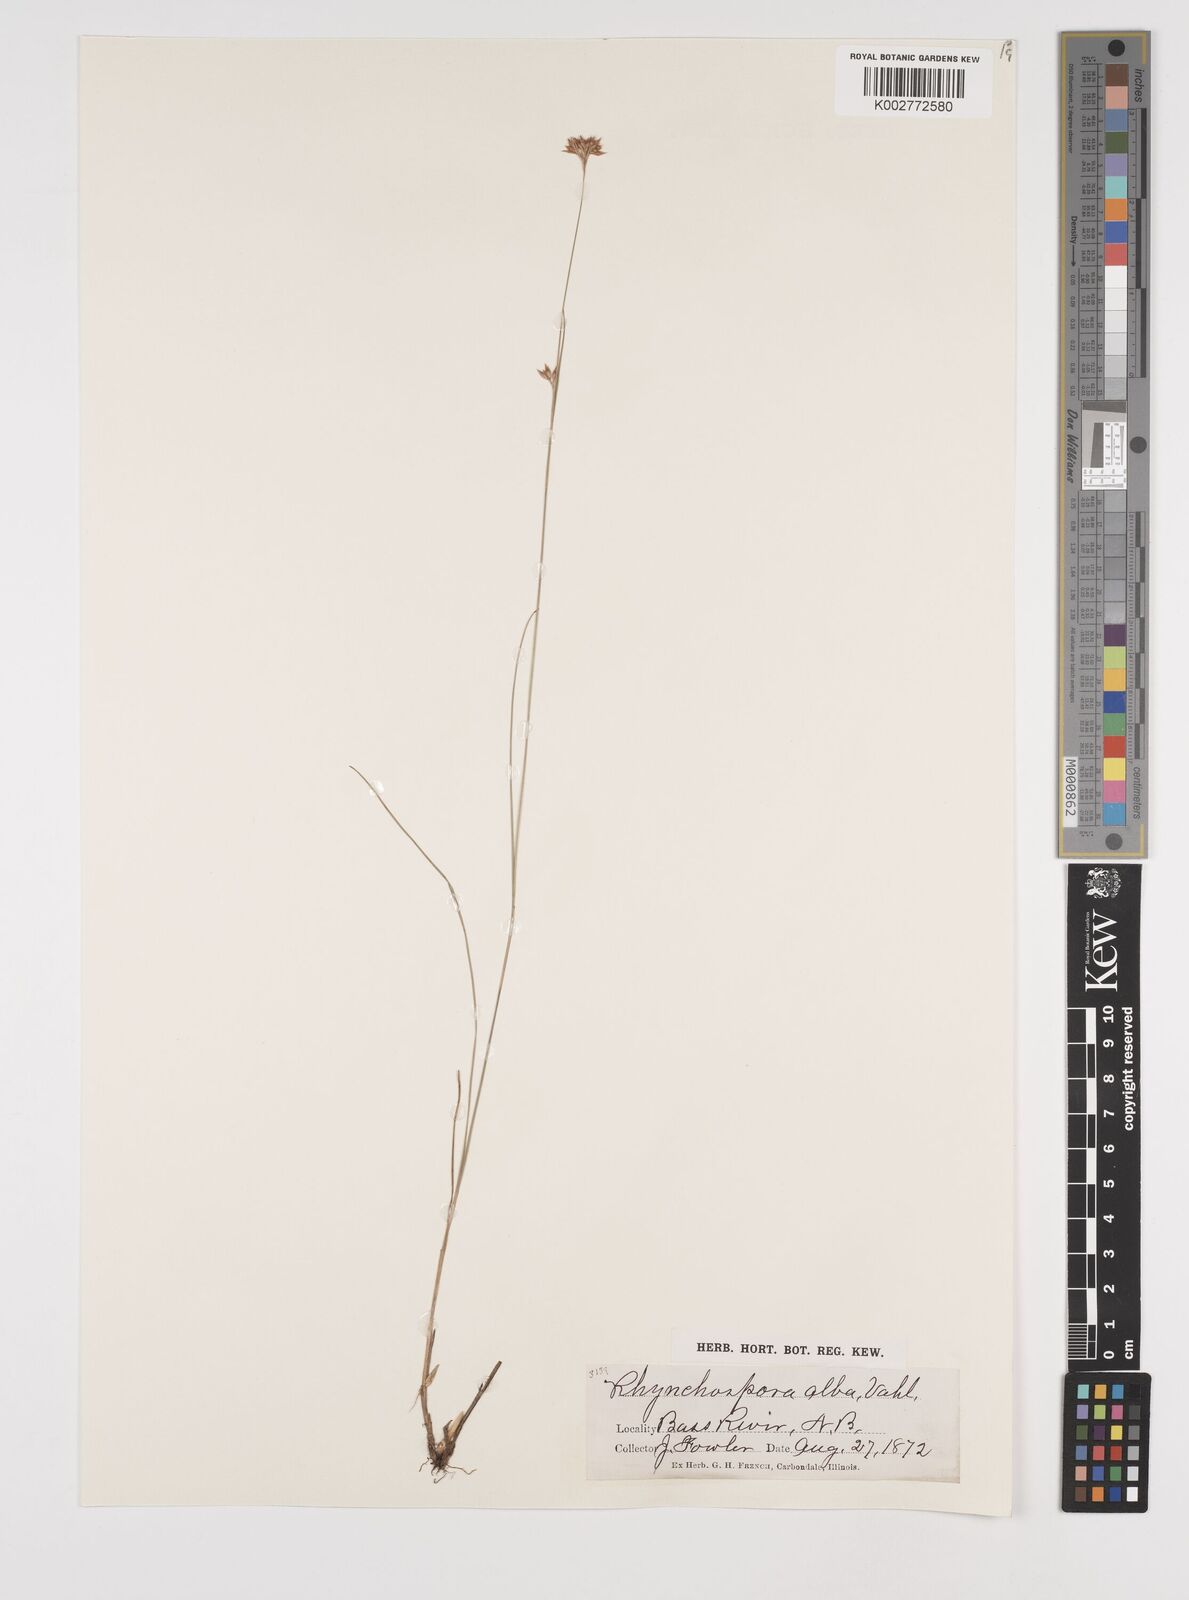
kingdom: Plantae
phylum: Tracheophyta
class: Liliopsida
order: Poales
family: Cyperaceae
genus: Rhynchospora
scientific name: Rhynchospora alba
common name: White beak-sedge
